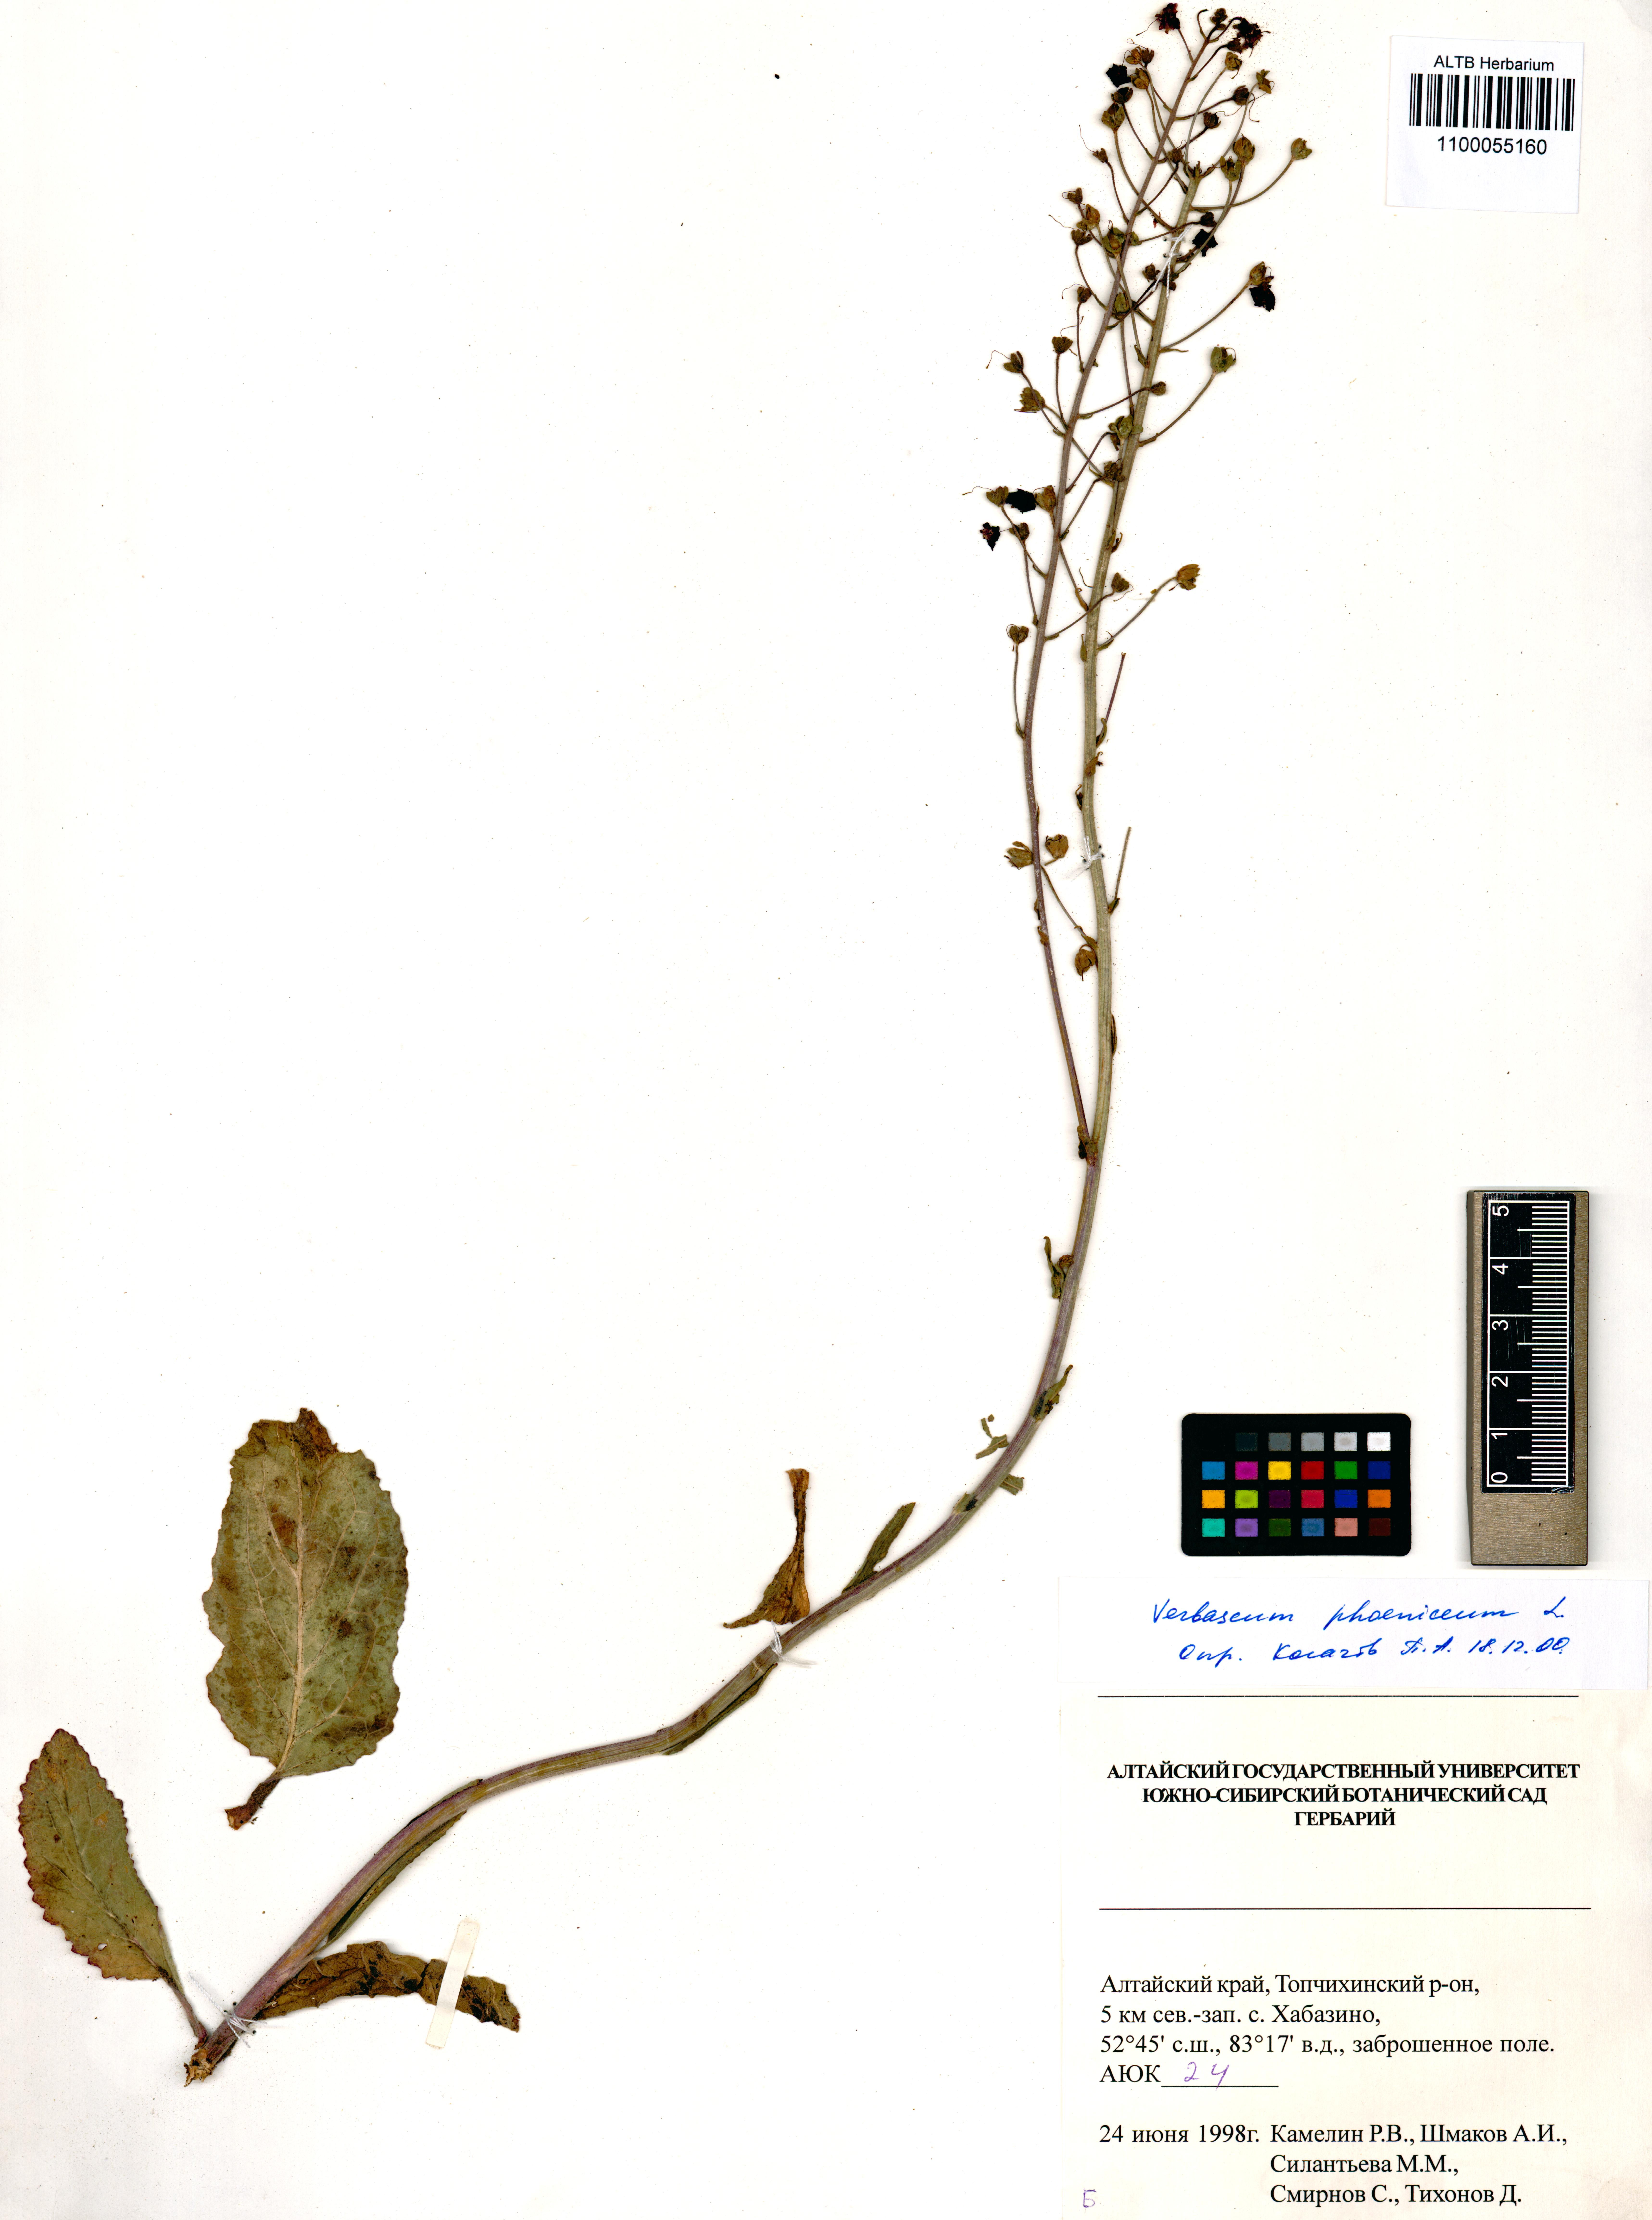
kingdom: Plantae
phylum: Tracheophyta
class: Magnoliopsida
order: Lamiales
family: Scrophulariaceae
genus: Verbascum
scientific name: Verbascum phoeniceum
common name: Purple mullein
